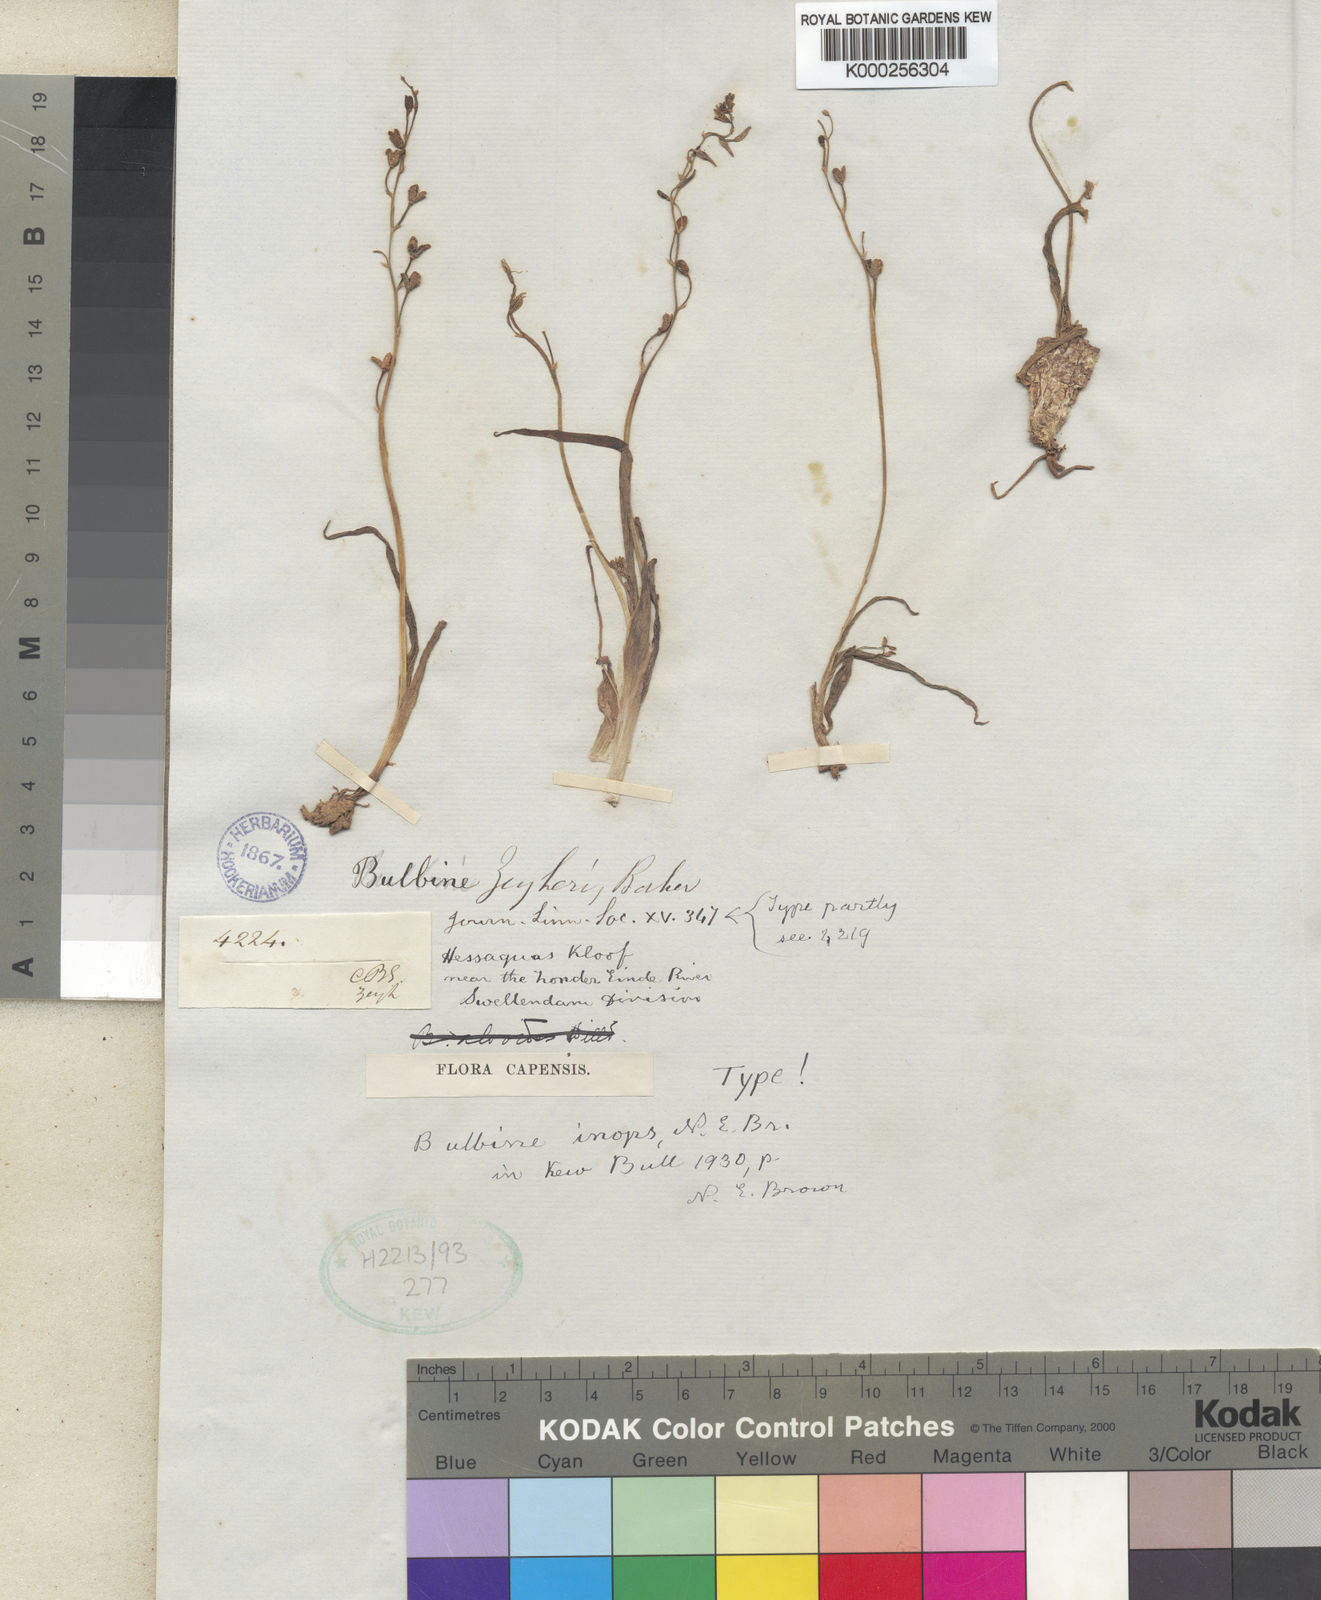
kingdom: Plantae
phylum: Tracheophyta
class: Liliopsida
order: Asparagales
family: Asphodelaceae
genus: Bulbine
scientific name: Bulbine
